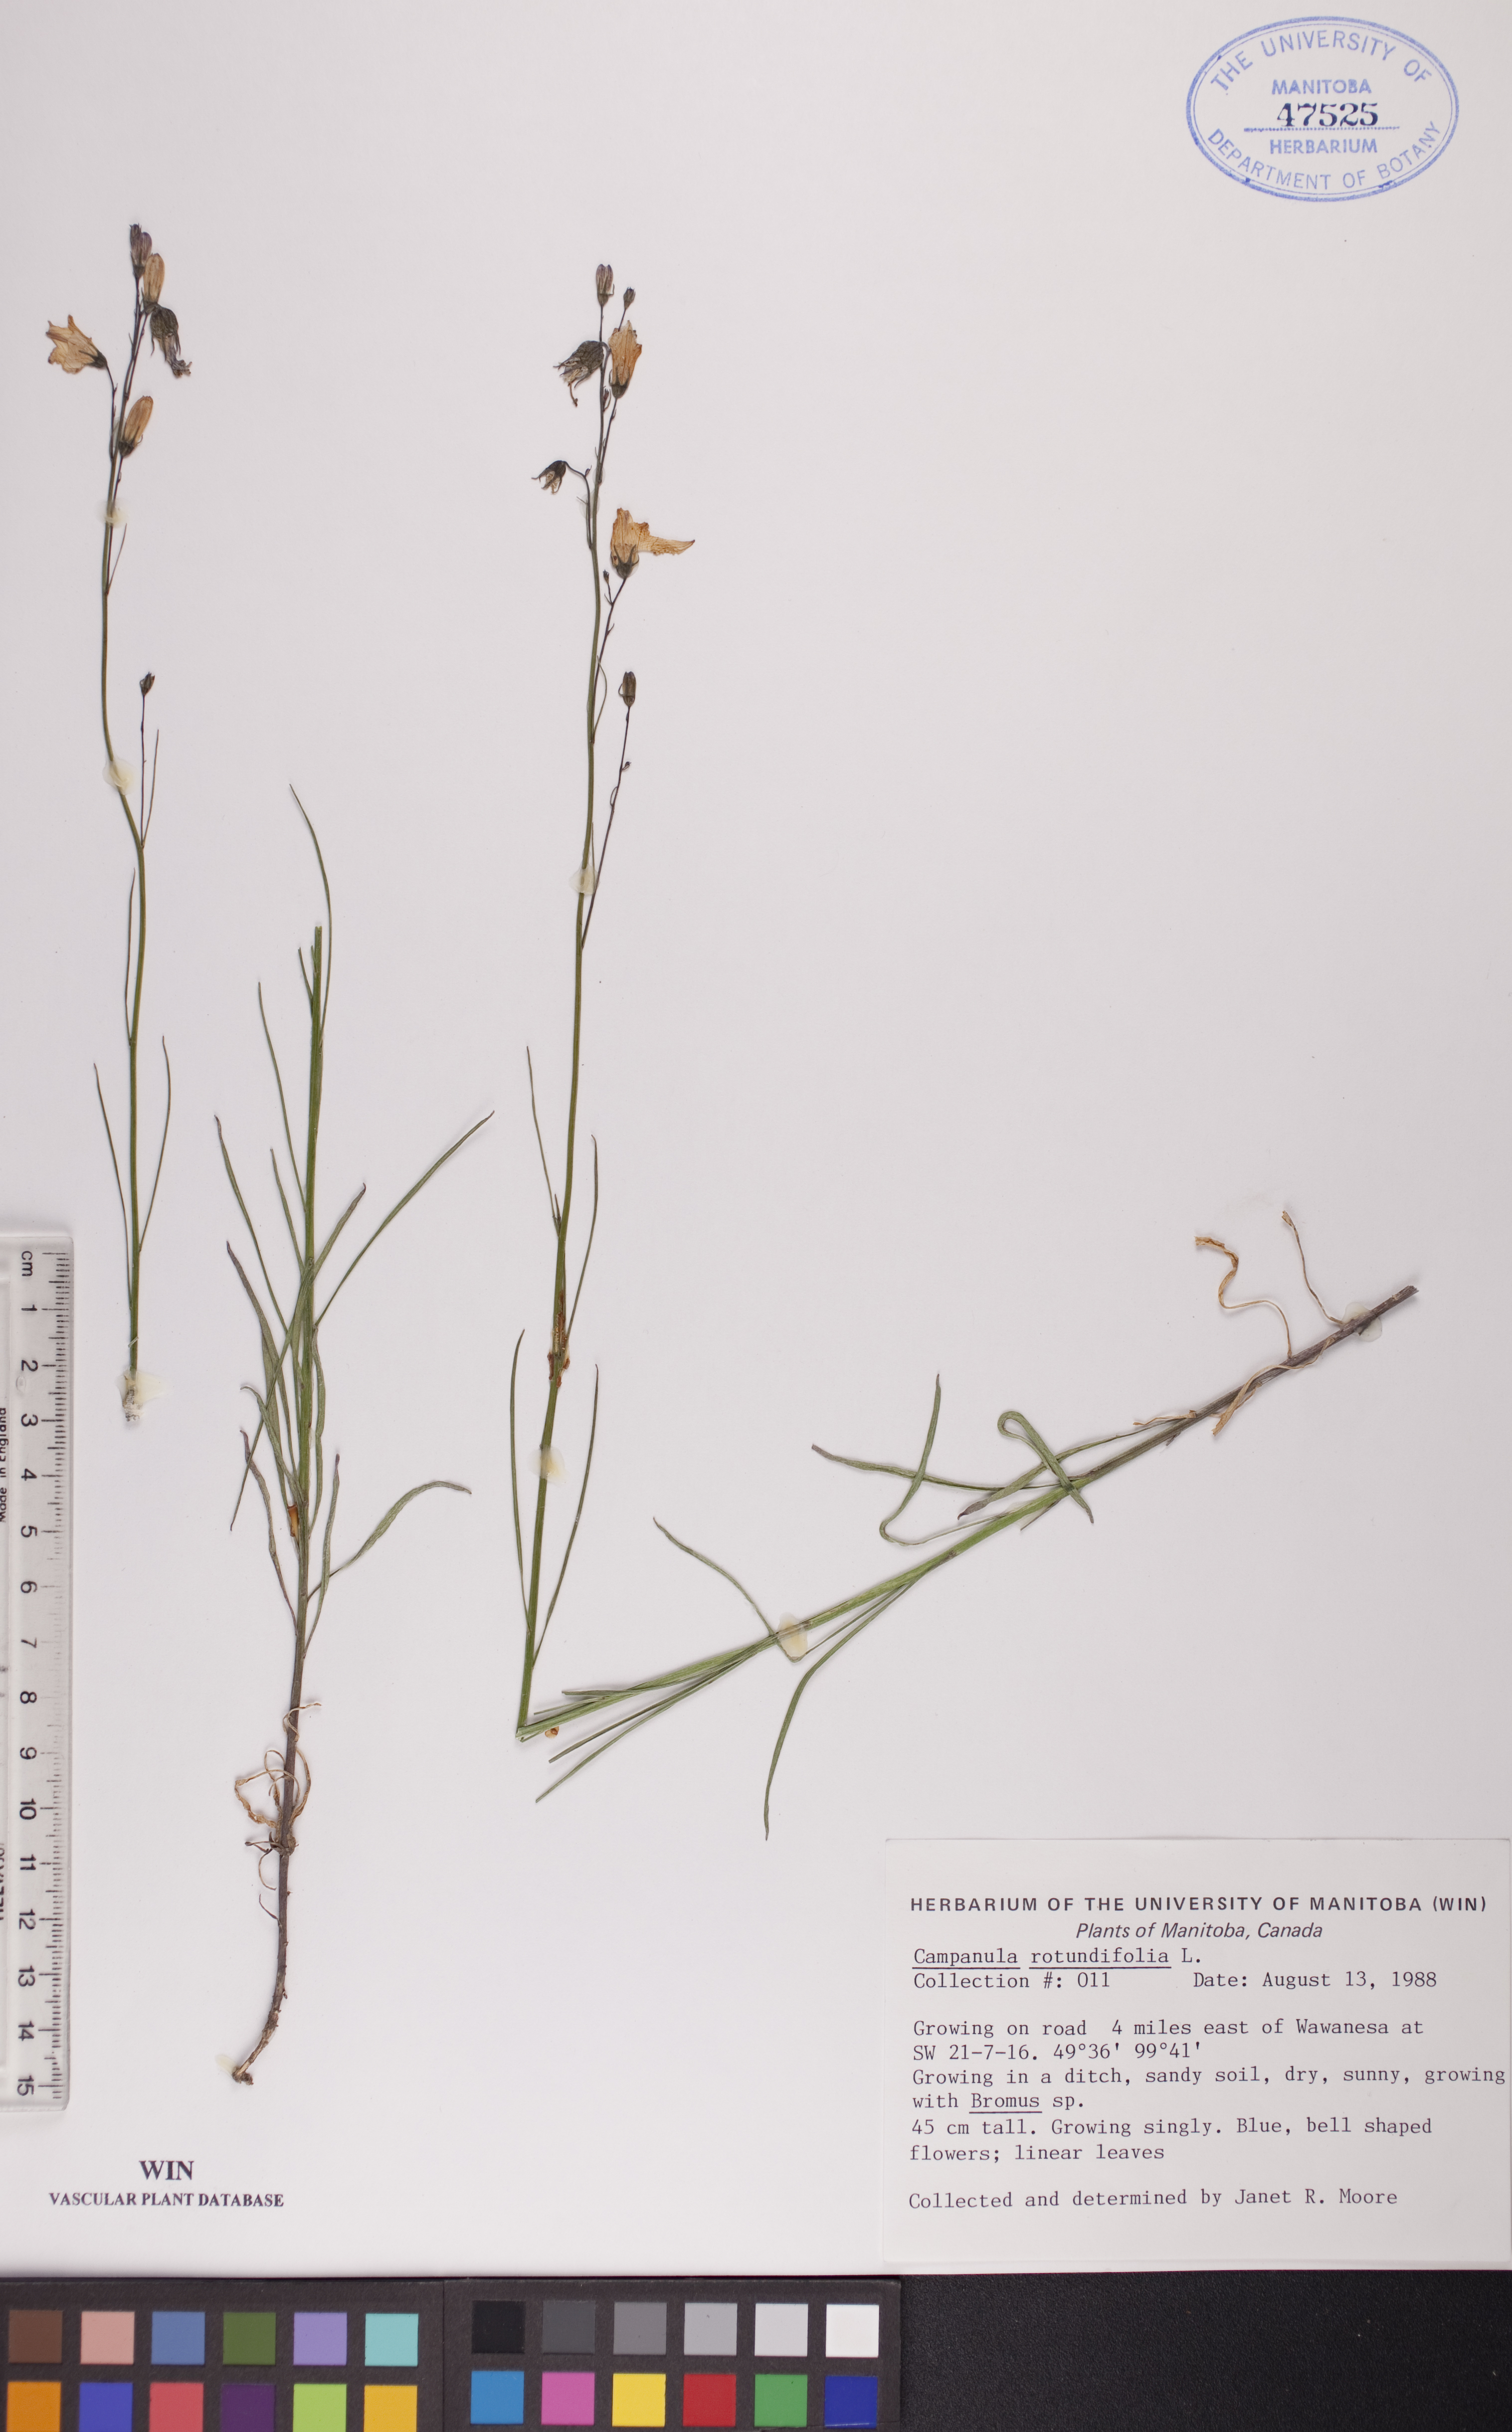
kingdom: Plantae
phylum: Tracheophyta
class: Magnoliopsida
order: Asterales
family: Campanulaceae
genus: Campanula
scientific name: Campanula rotundifolia
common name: Harebell
